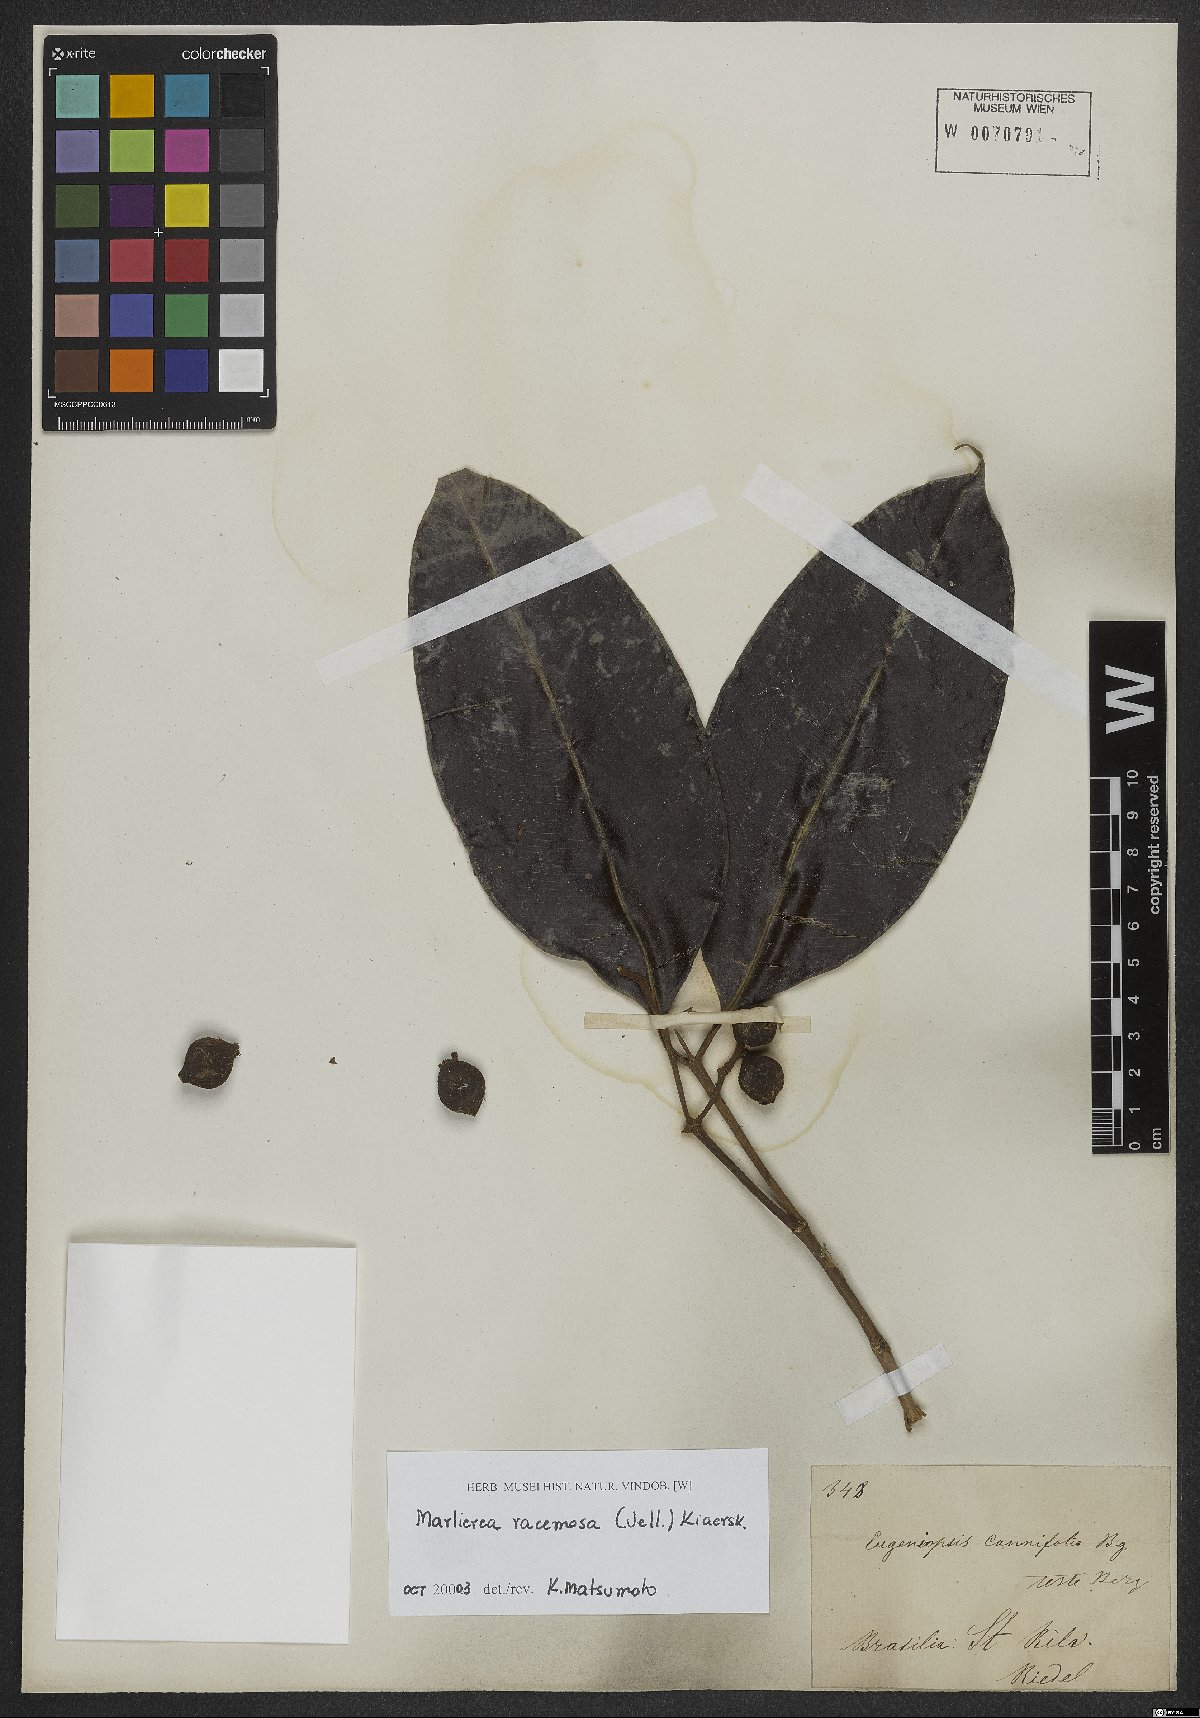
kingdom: Plantae
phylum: Tracheophyta
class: Magnoliopsida
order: Myrtales
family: Myrtaceae
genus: Myrcia
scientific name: Myrcia vellozoi
